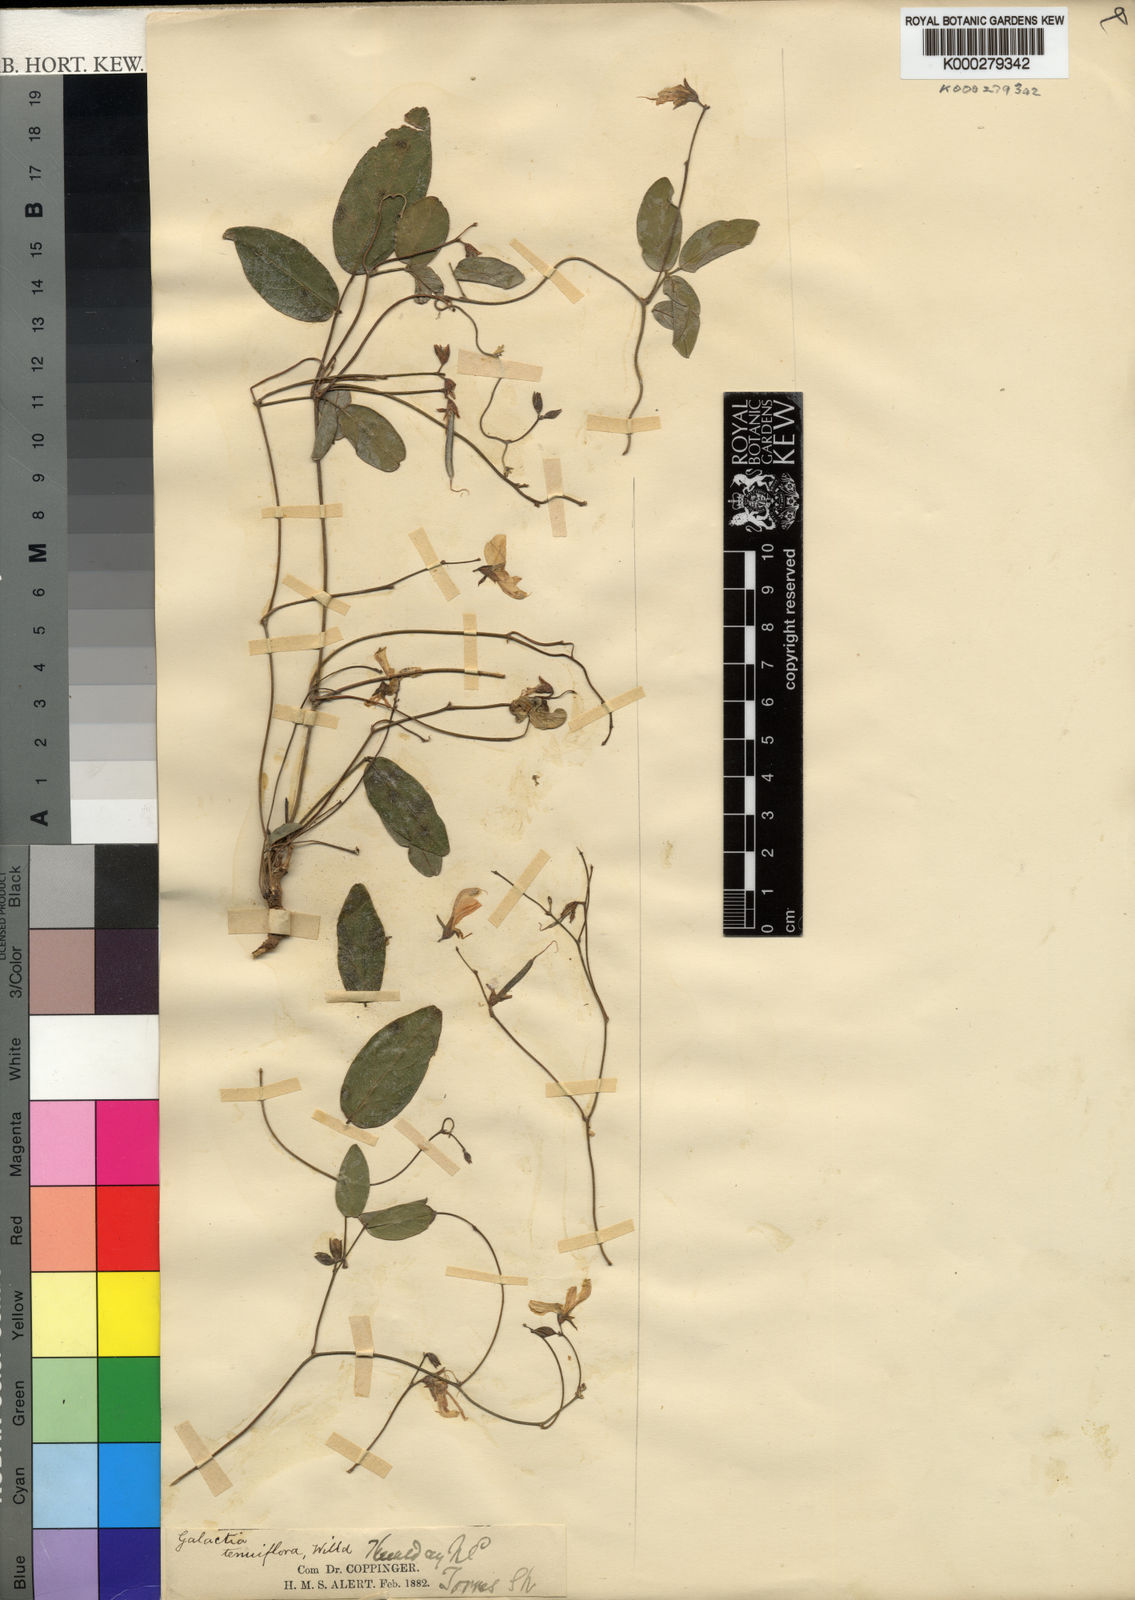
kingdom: Plantae
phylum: Tracheophyta
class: Magnoliopsida
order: Fabales
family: Fabaceae
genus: Galactia
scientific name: Galactia striata
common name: Florida hammock milkpea
